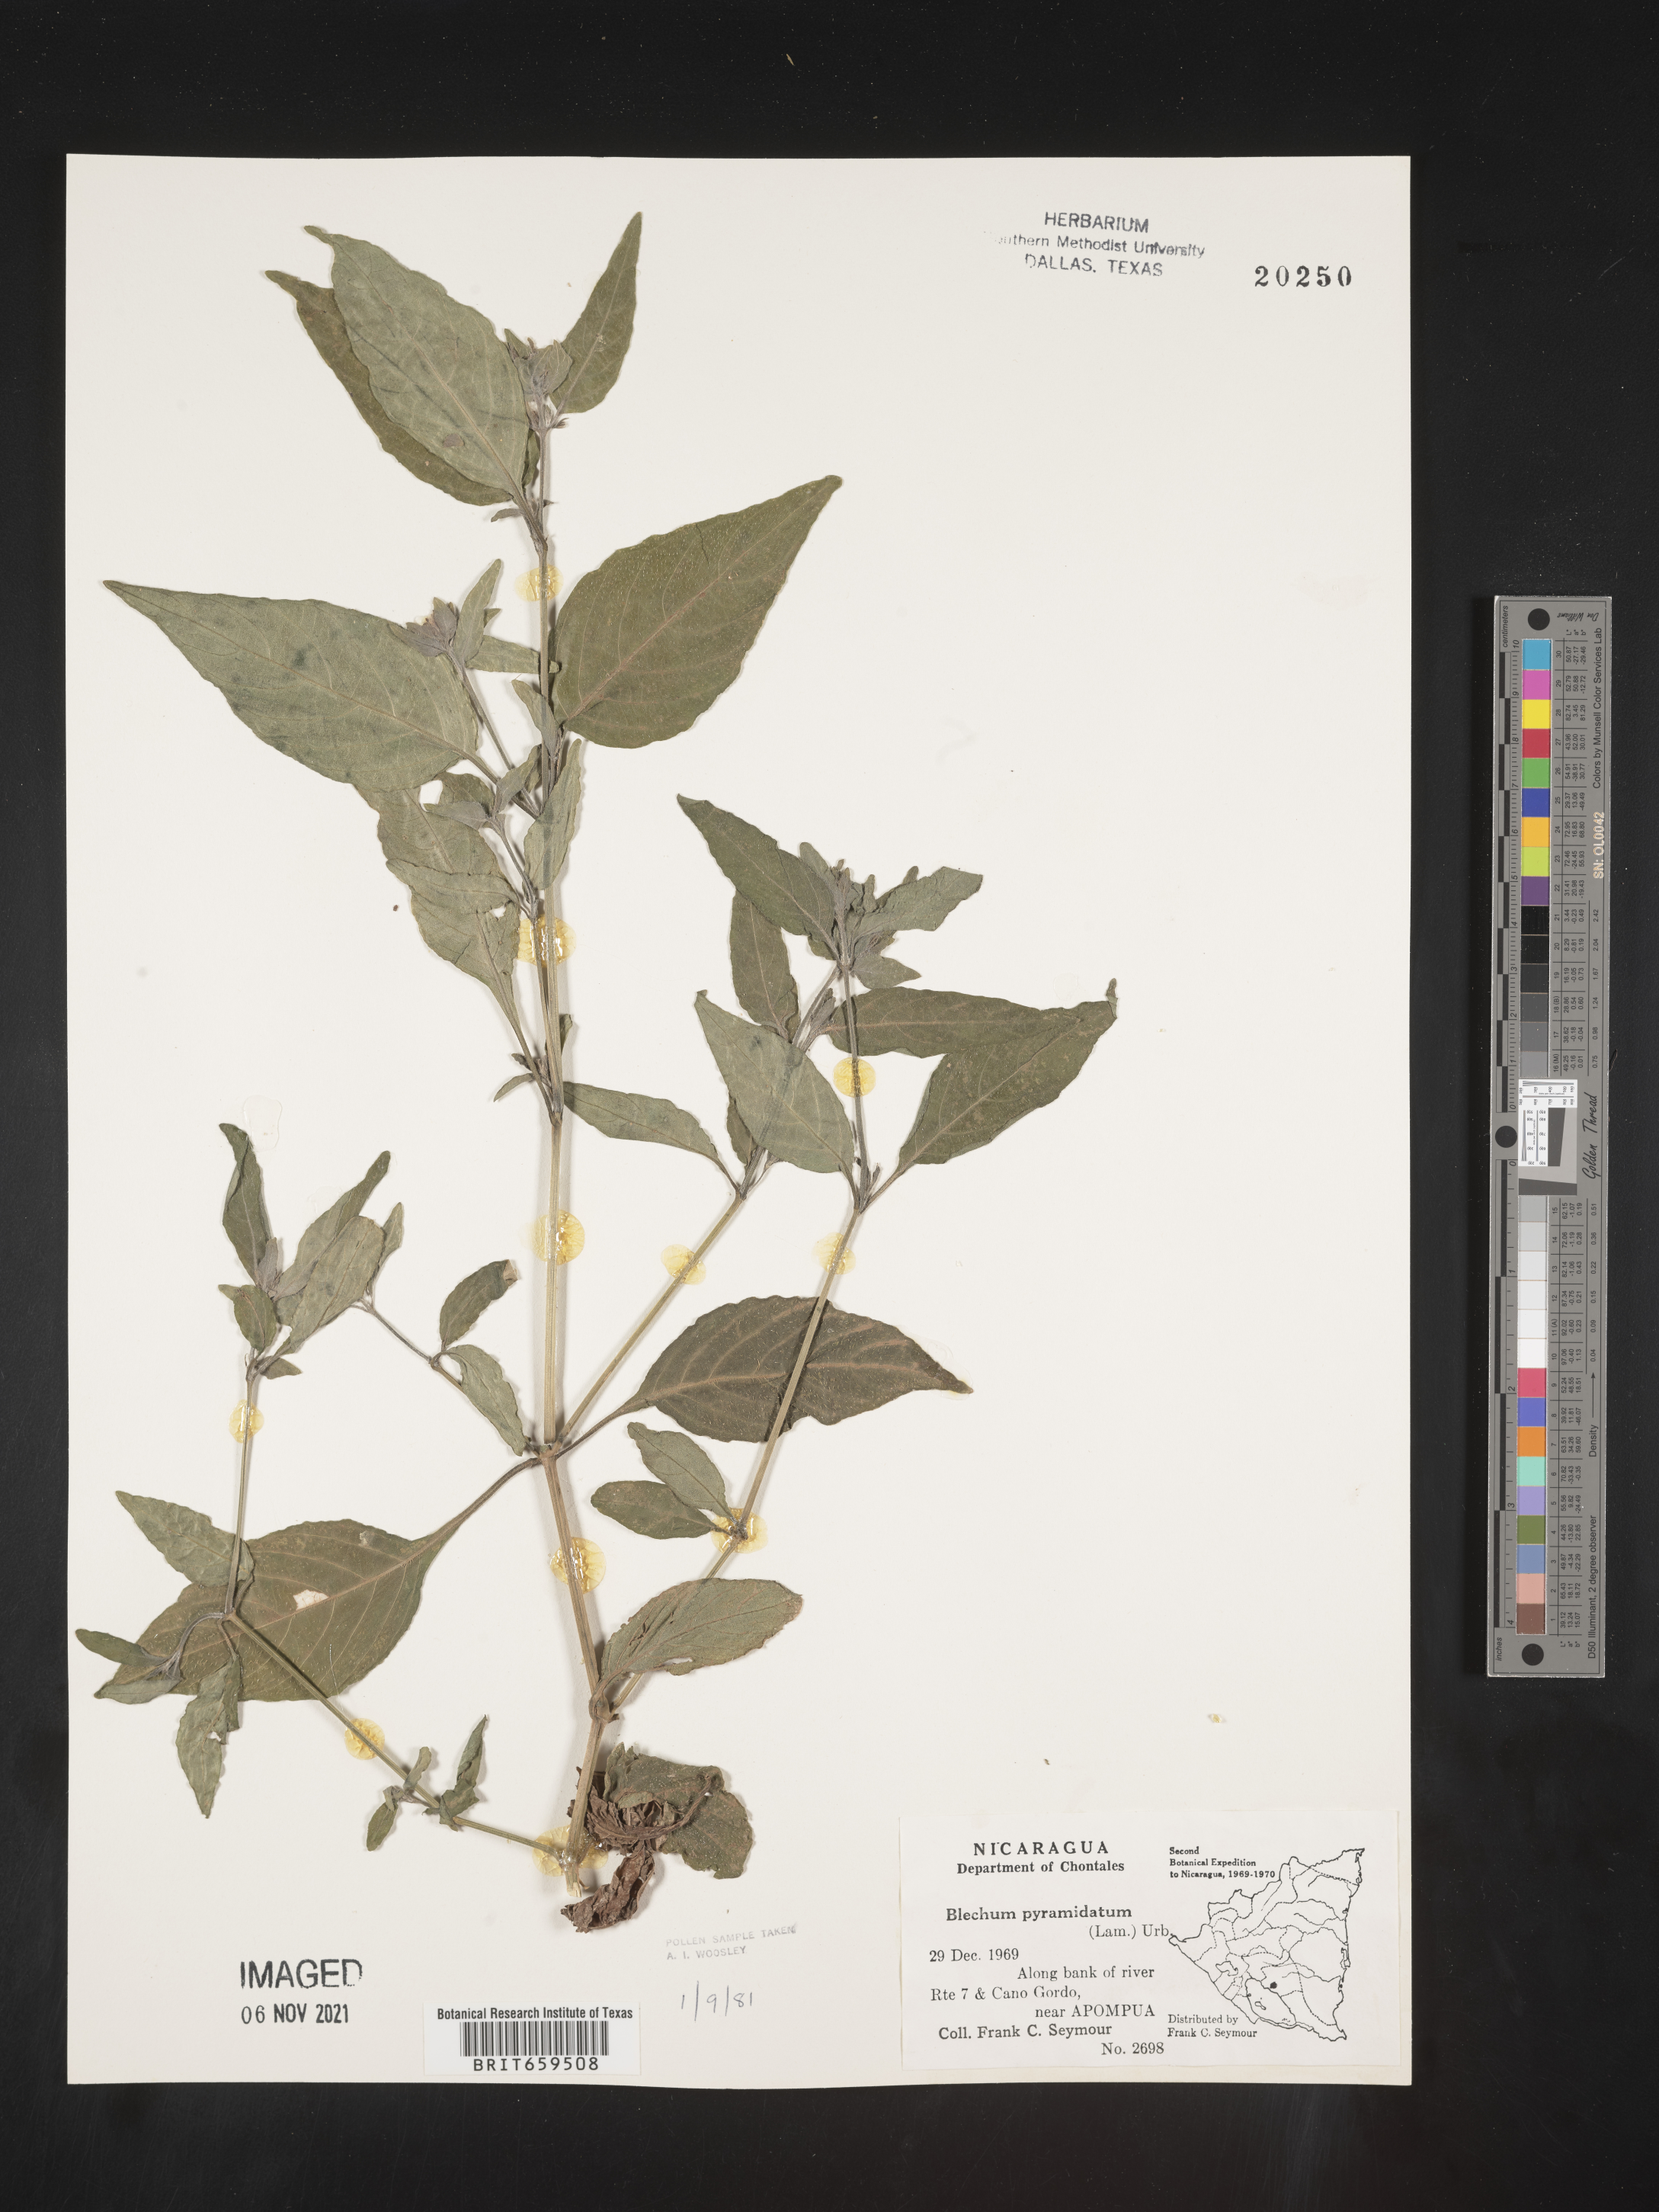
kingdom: Plantae
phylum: Tracheophyta
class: Polypodiopsida
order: Polypodiales
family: Blechnaceae
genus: Blechum
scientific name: Blechum
